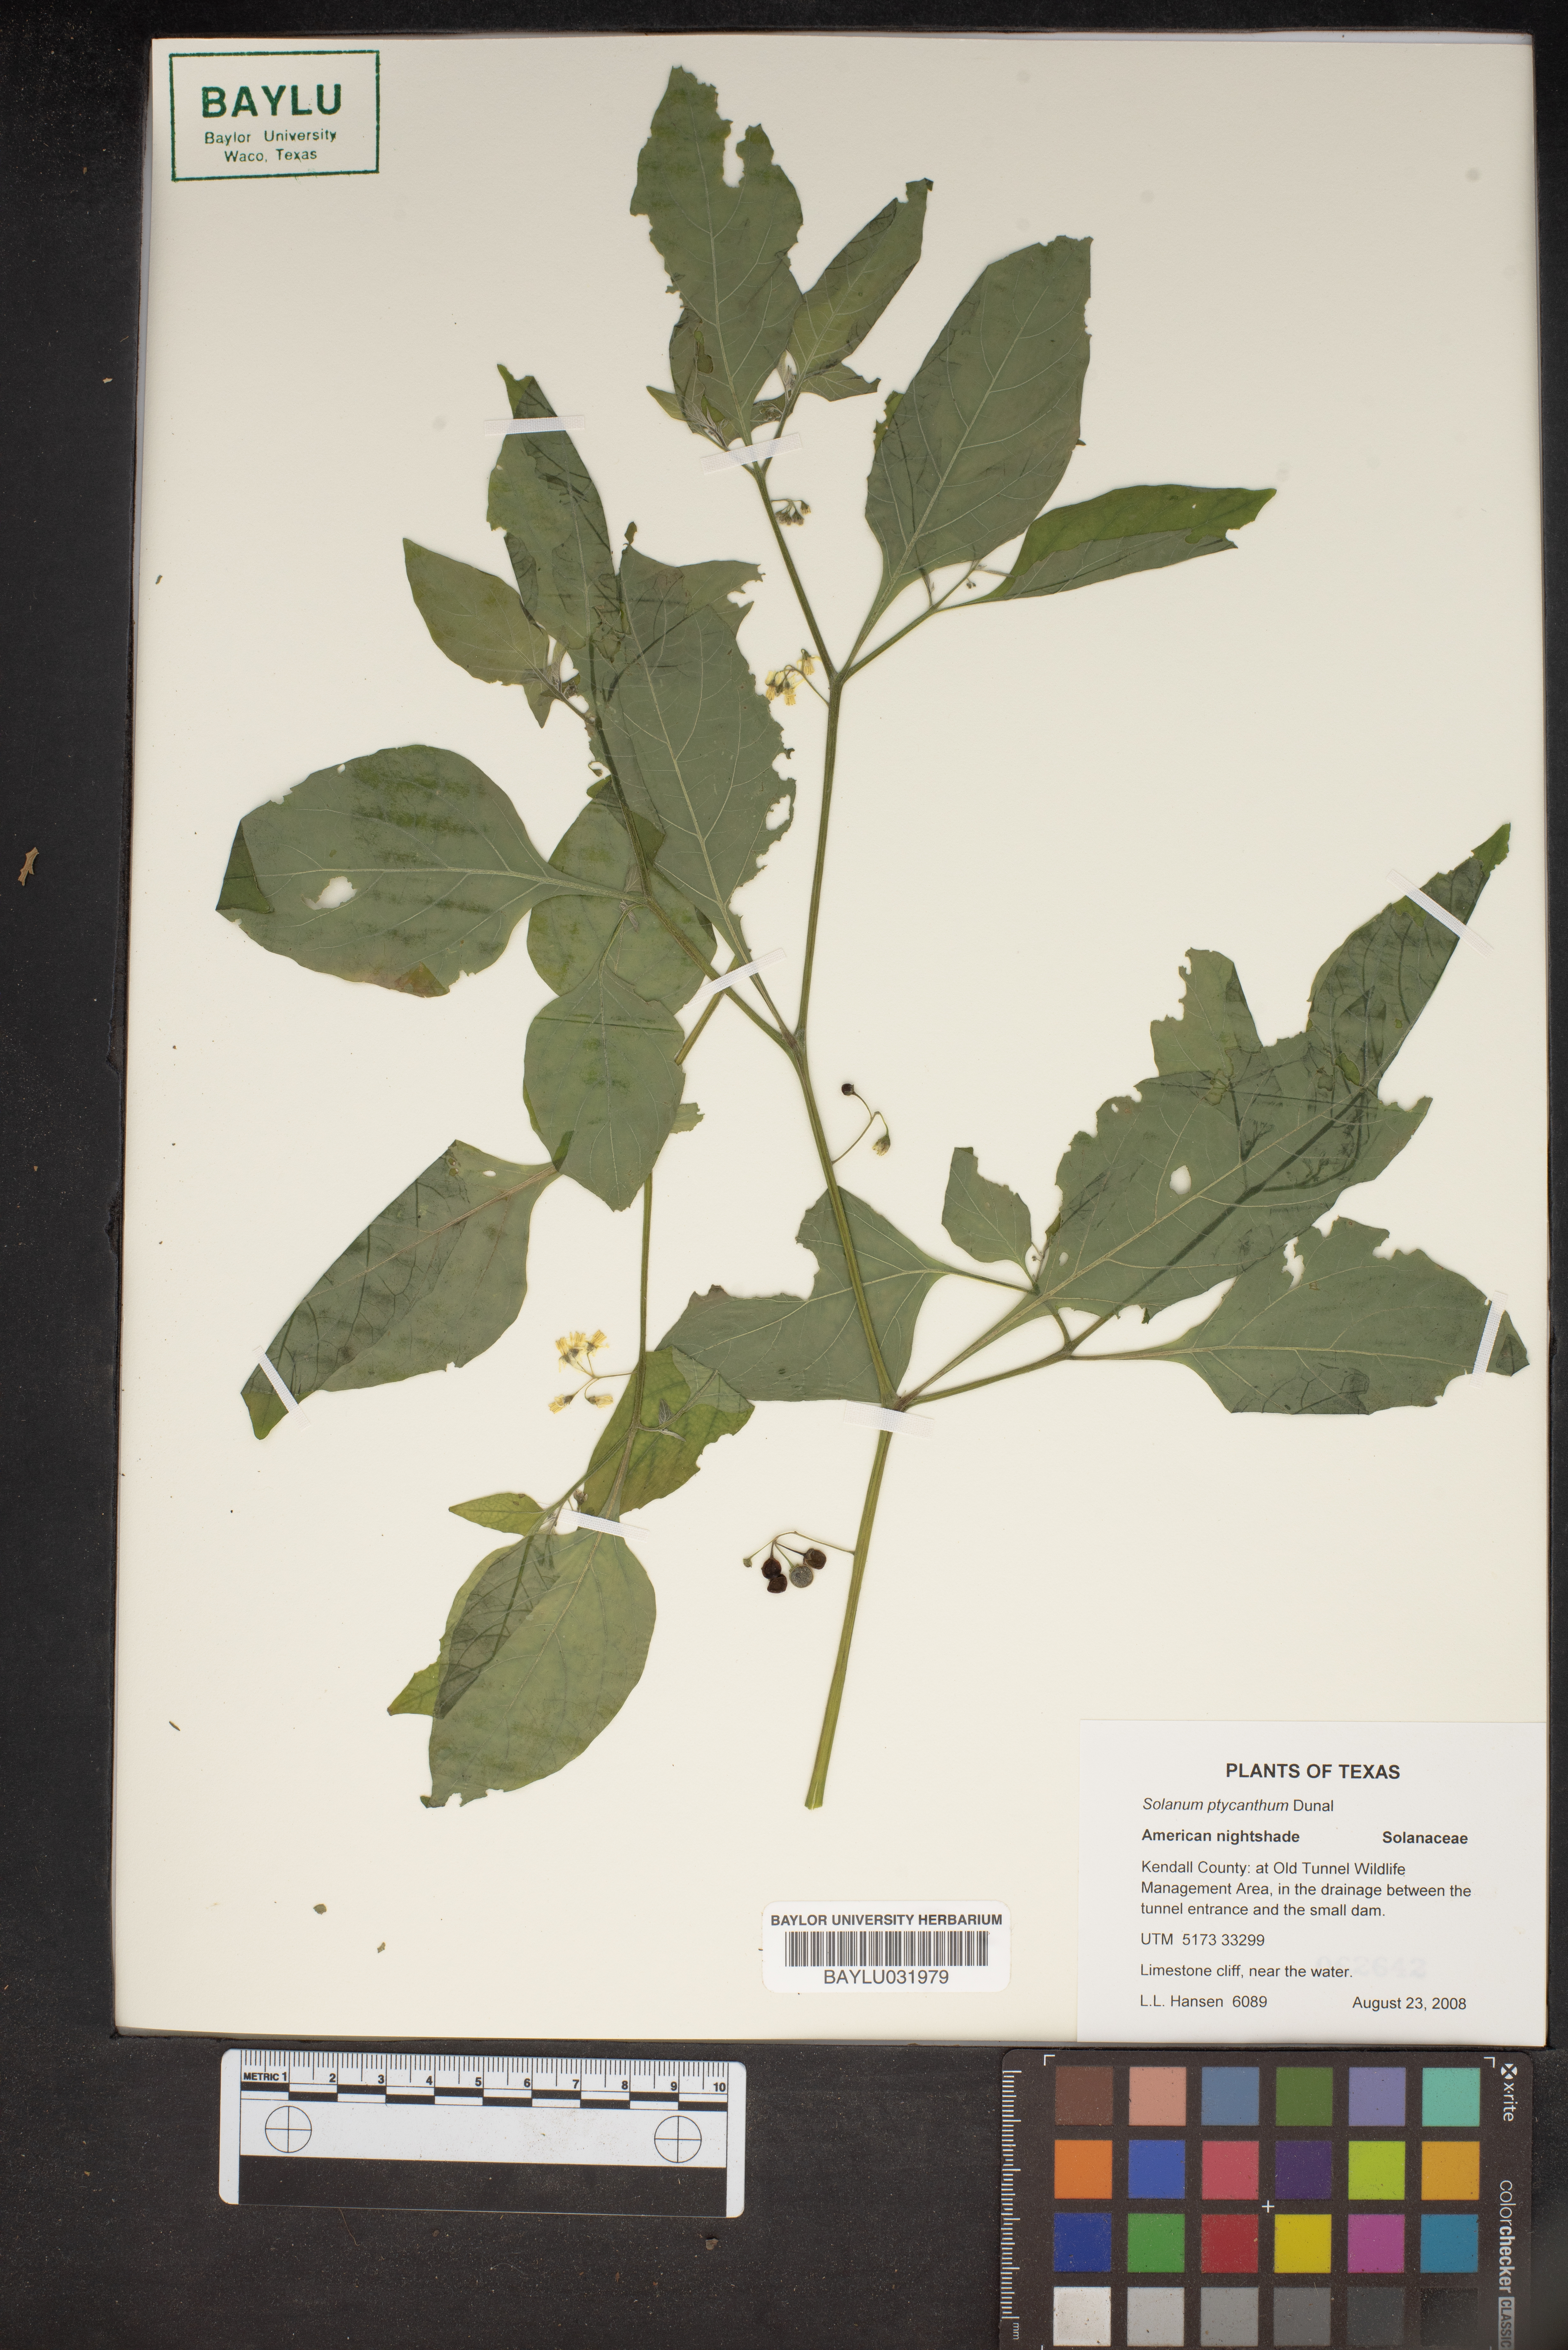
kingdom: Plantae
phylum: Tracheophyta
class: Magnoliopsida
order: Solanales
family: Solanaceae
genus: Solanum
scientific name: Solanum americanum
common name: American black nightshade
